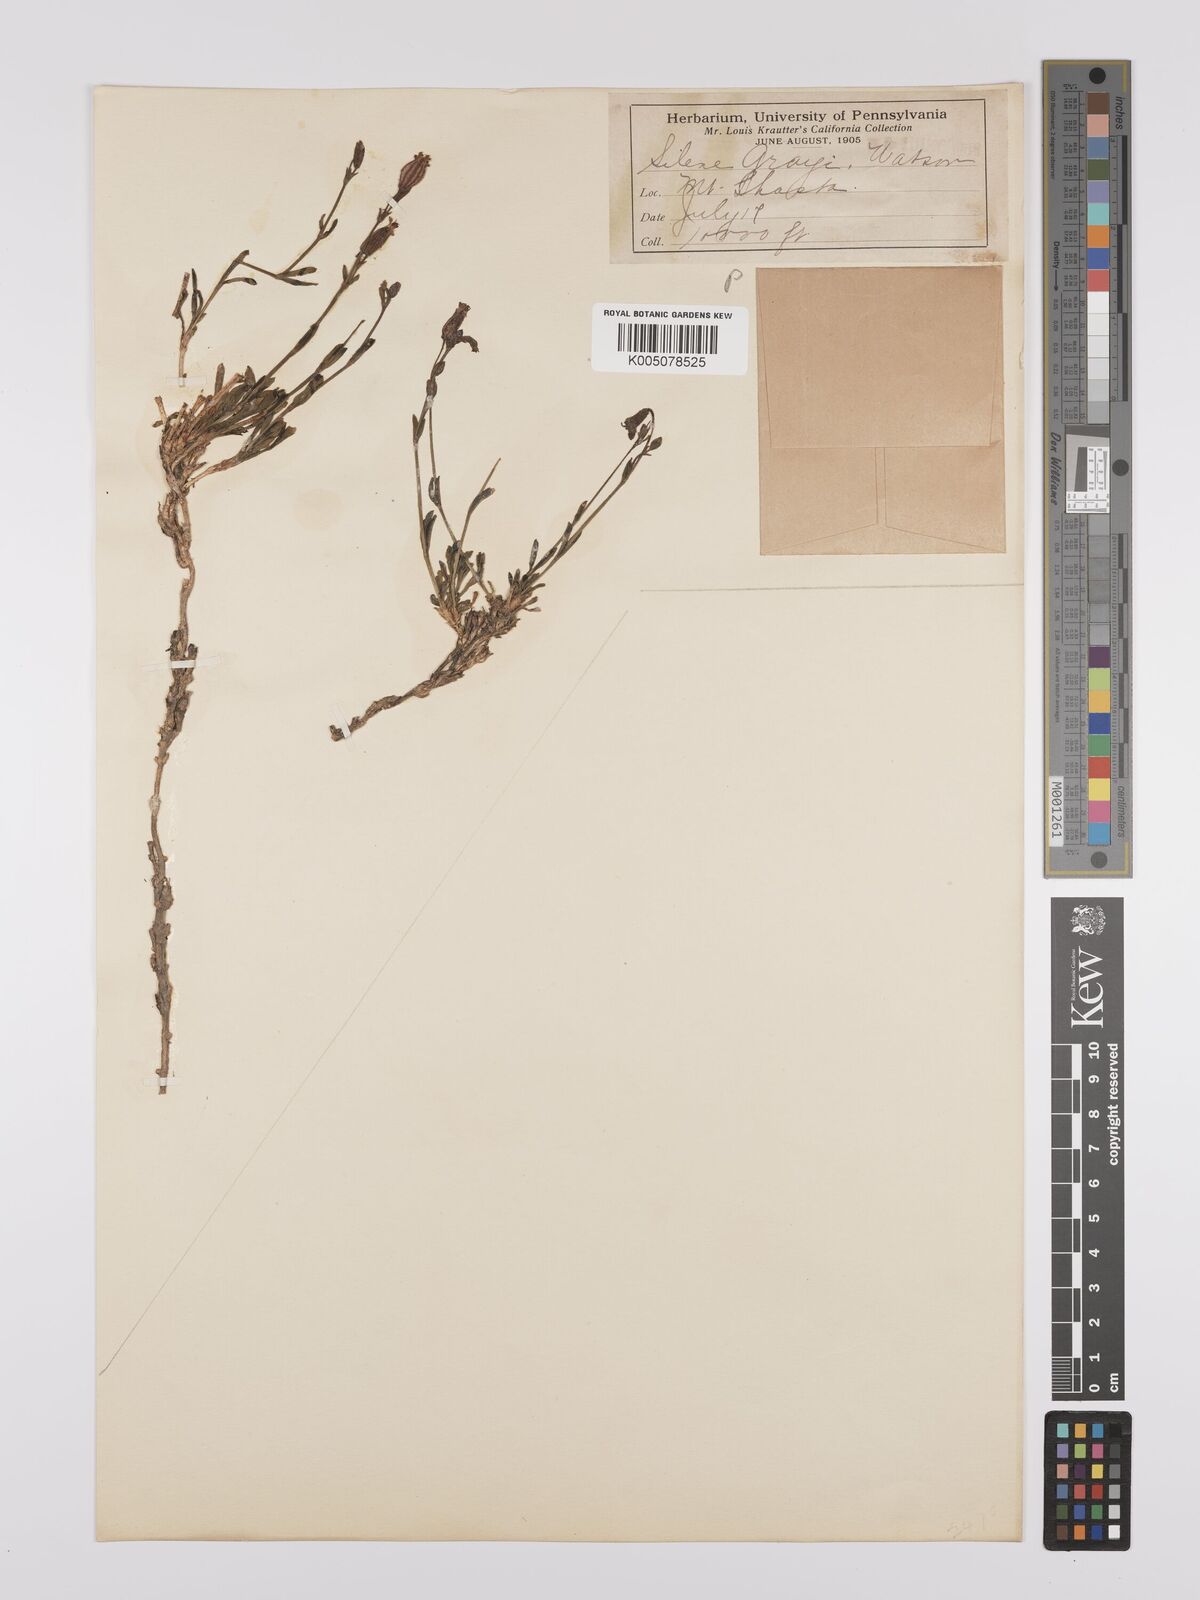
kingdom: Plantae
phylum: Tracheophyta
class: Magnoliopsida
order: Caryophyllales
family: Caryophyllaceae
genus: Silene
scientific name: Silene grayi
